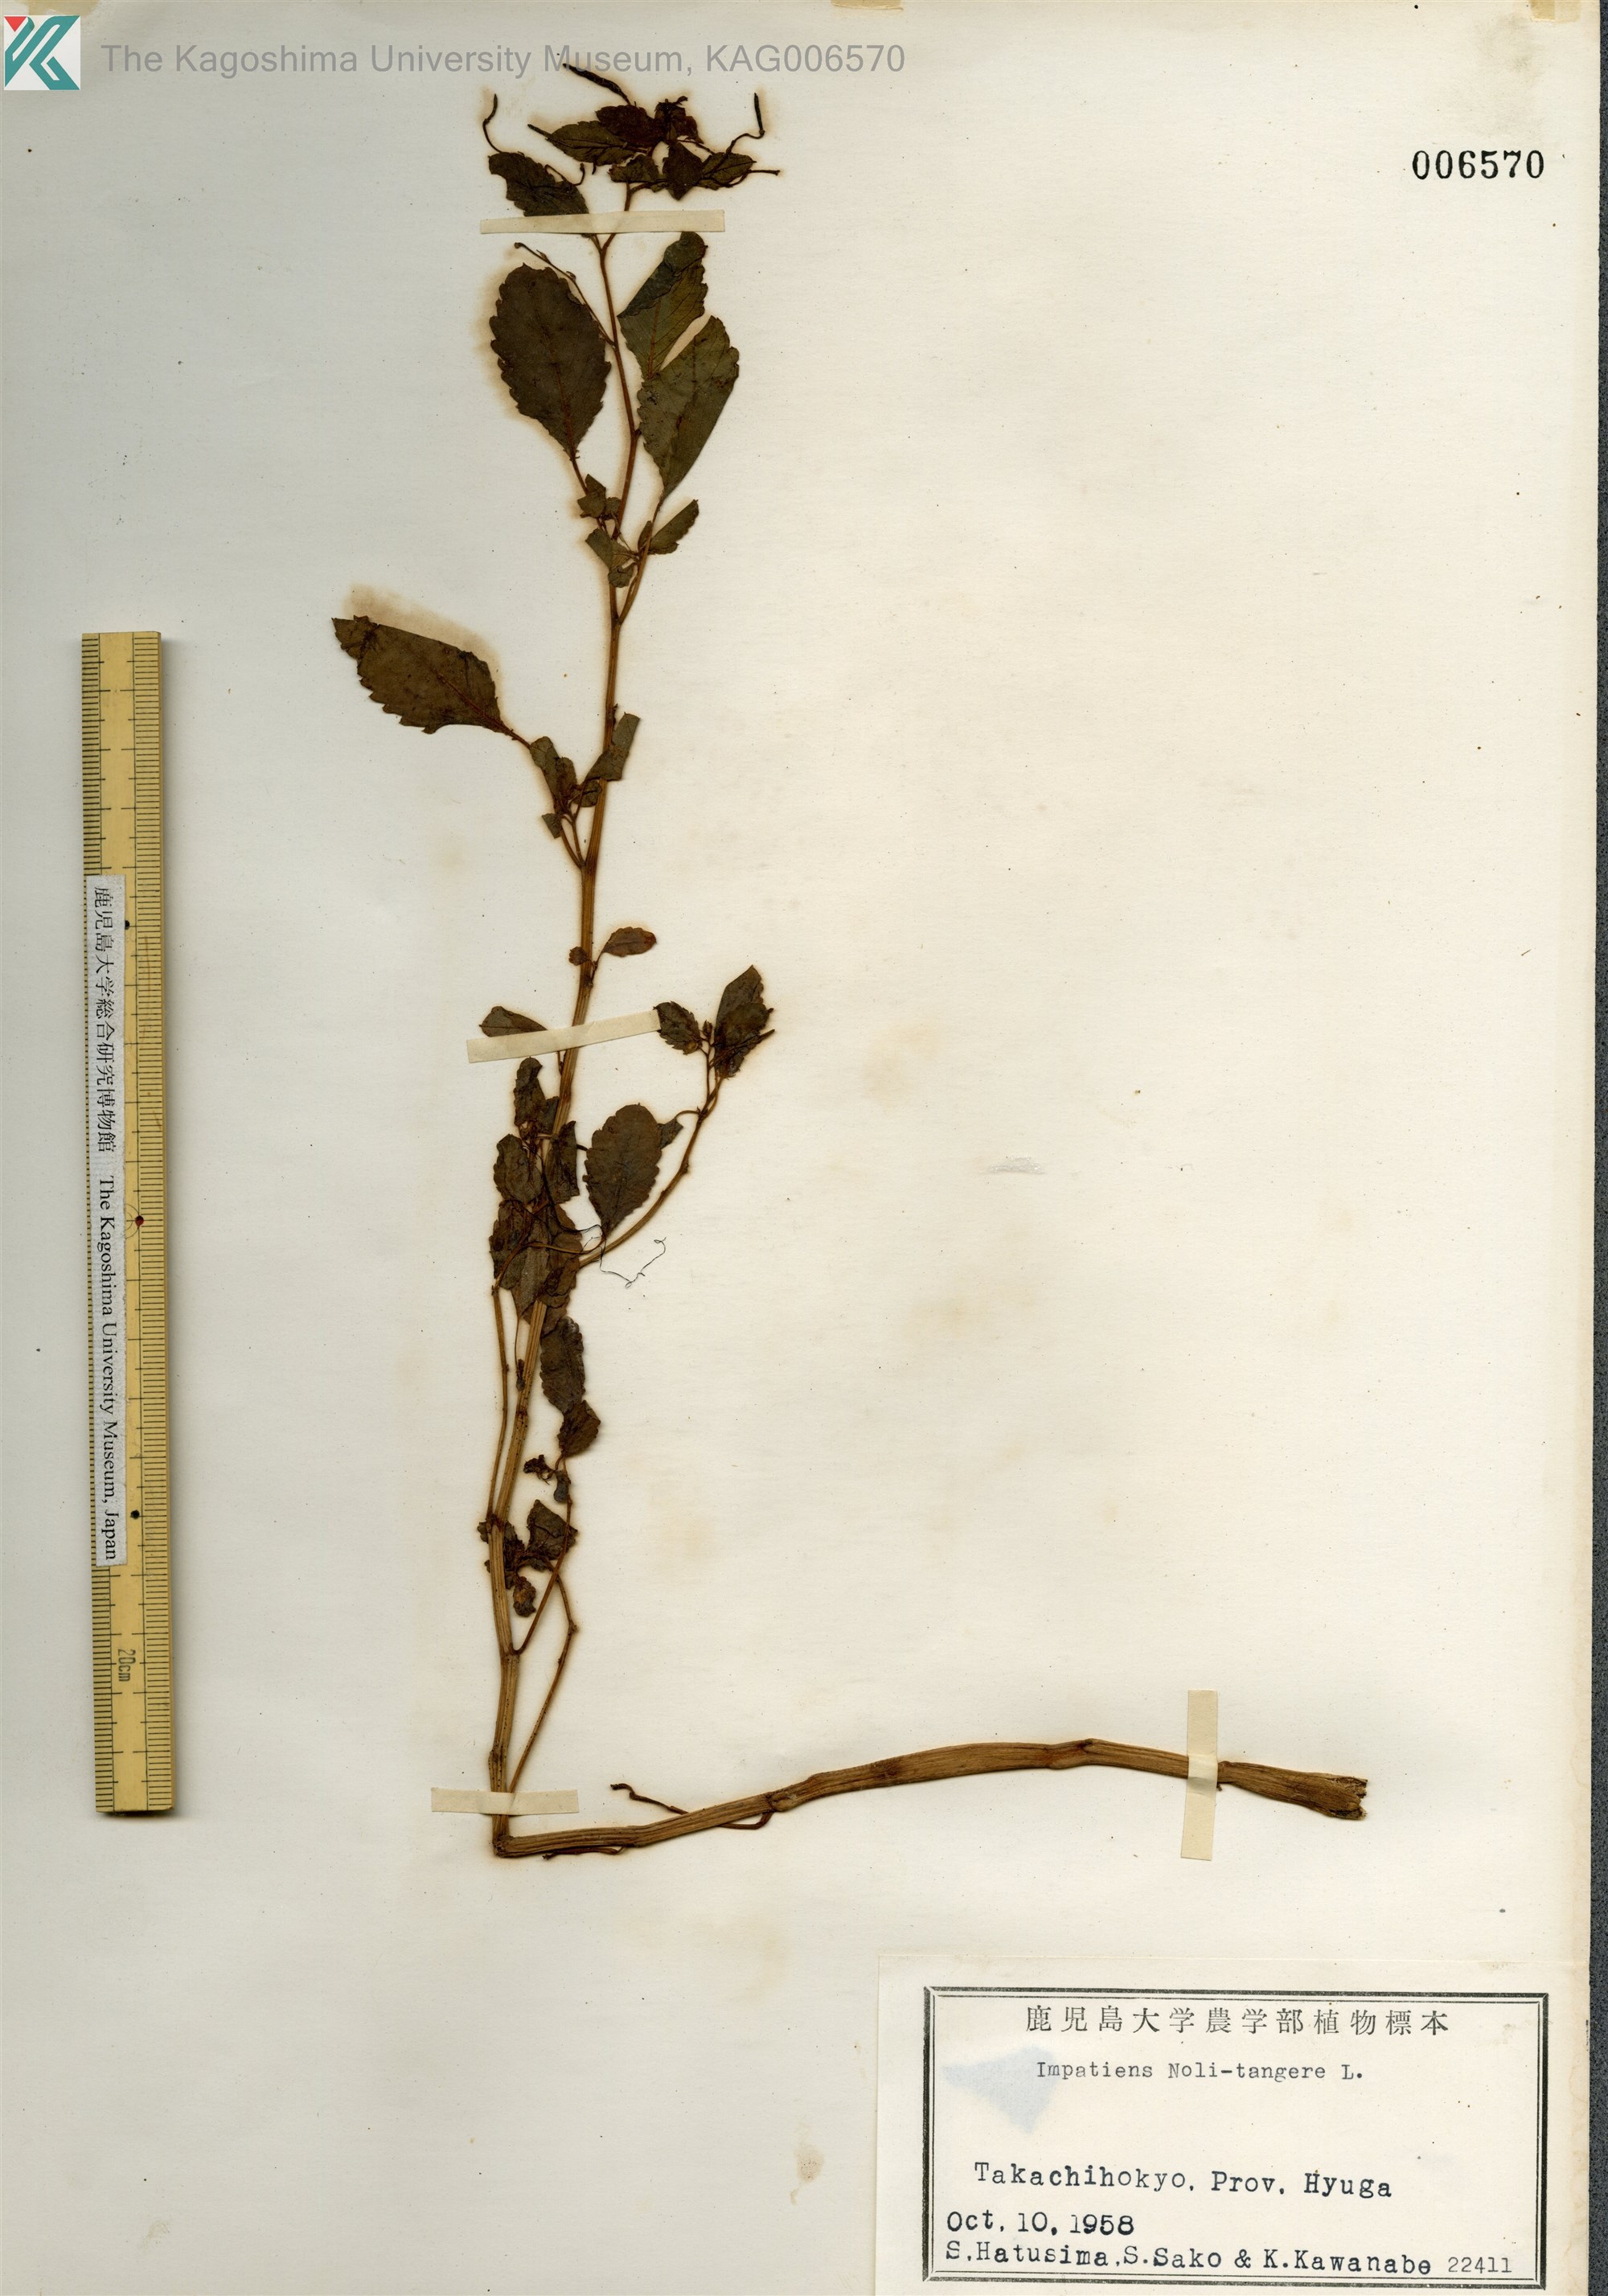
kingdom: Plantae
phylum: Tracheophyta
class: Magnoliopsida
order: Ericales
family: Balsaminaceae
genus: Impatiens
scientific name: Impatiens noli-tangere
